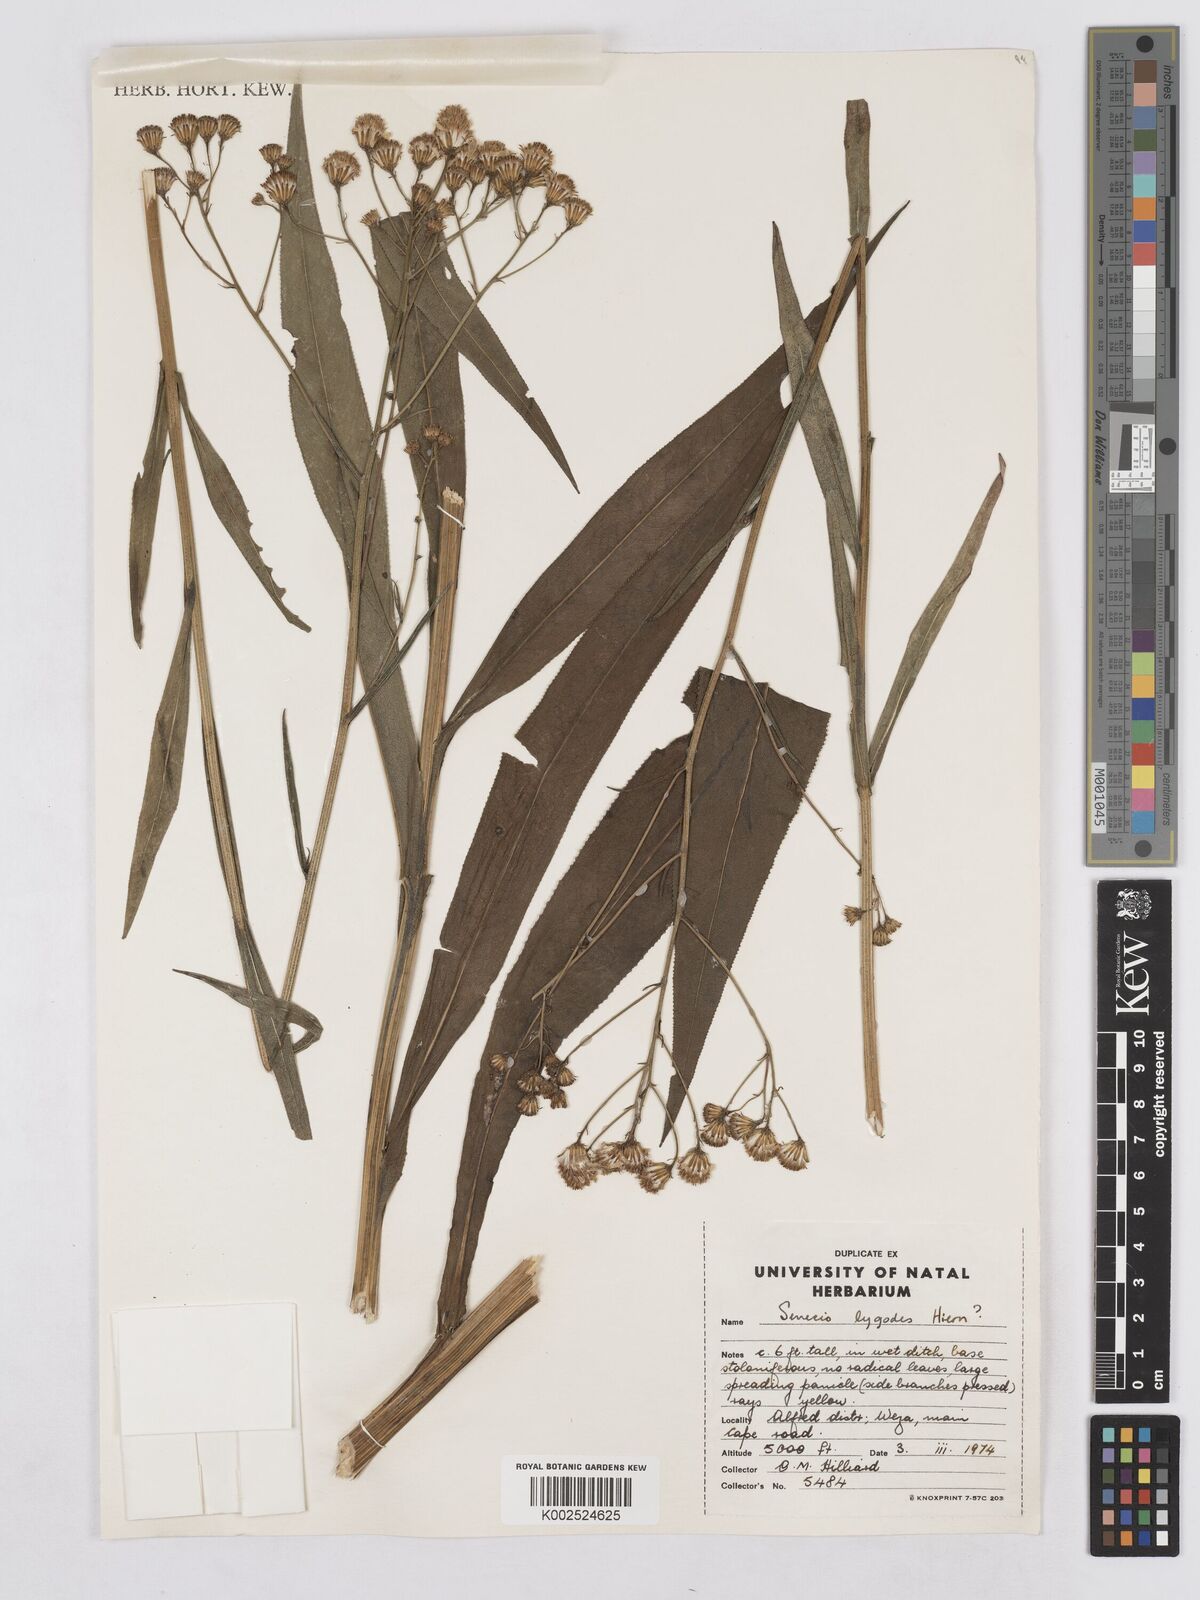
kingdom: Plantae
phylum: Tracheophyta
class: Magnoliopsida
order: Asterales
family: Asteraceae
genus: Senecio
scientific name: Senecio inornatus
